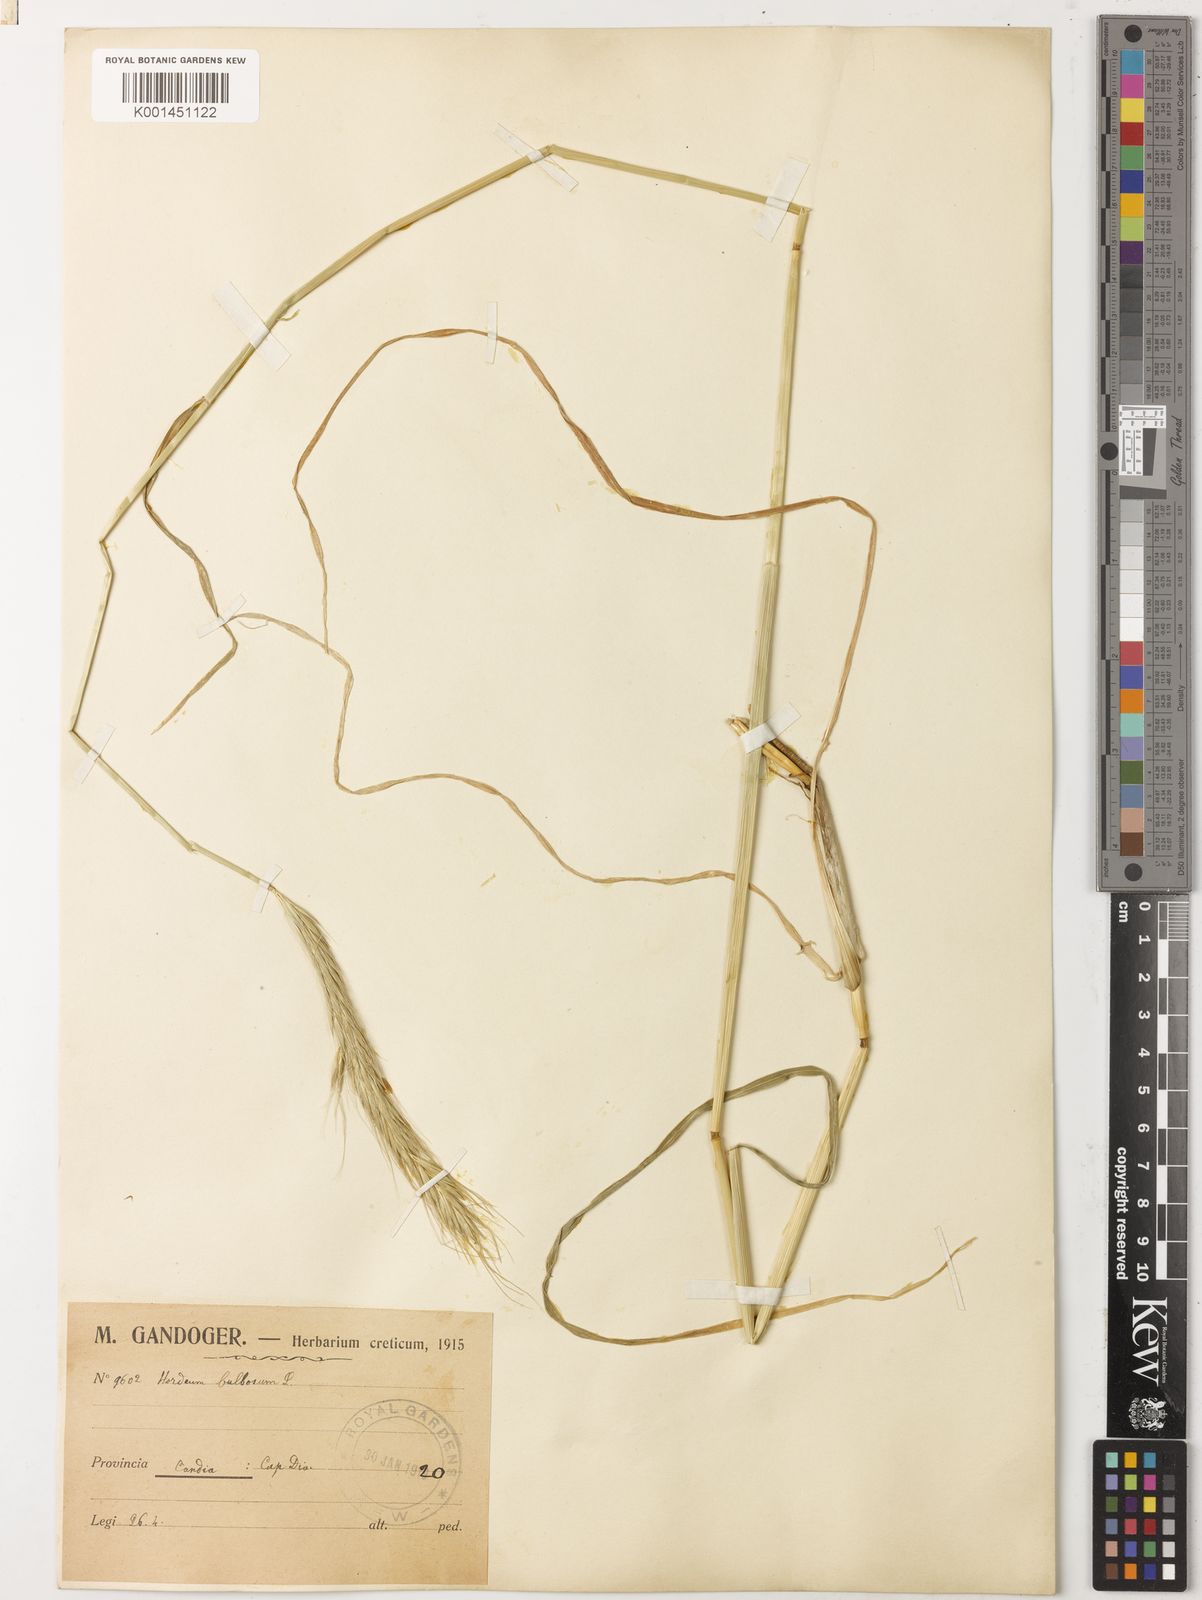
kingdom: Plantae
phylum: Tracheophyta
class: Liliopsida
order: Poales
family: Poaceae
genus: Hordeum
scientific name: Hordeum bulbosum
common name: Bulbous barley
